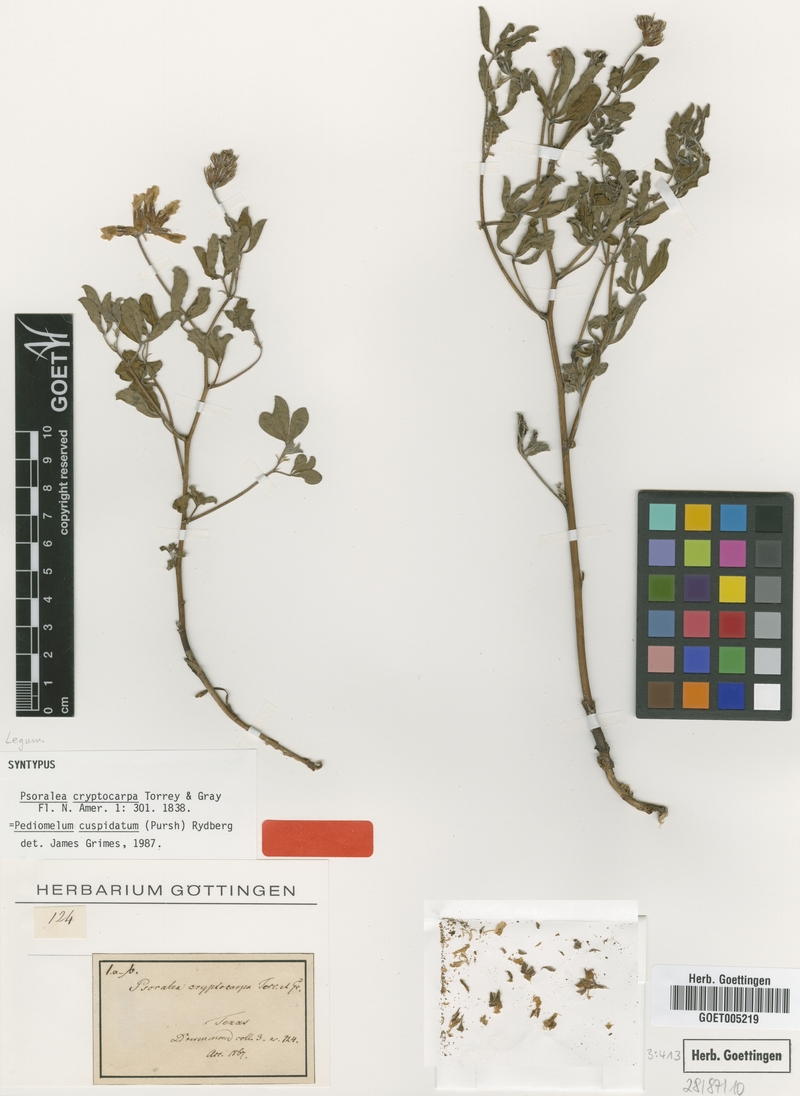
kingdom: Plantae
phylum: Tracheophyta
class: Magnoliopsida
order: Fabales
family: Fabaceae
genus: Pediomelum
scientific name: Pediomelum cuspidatum
